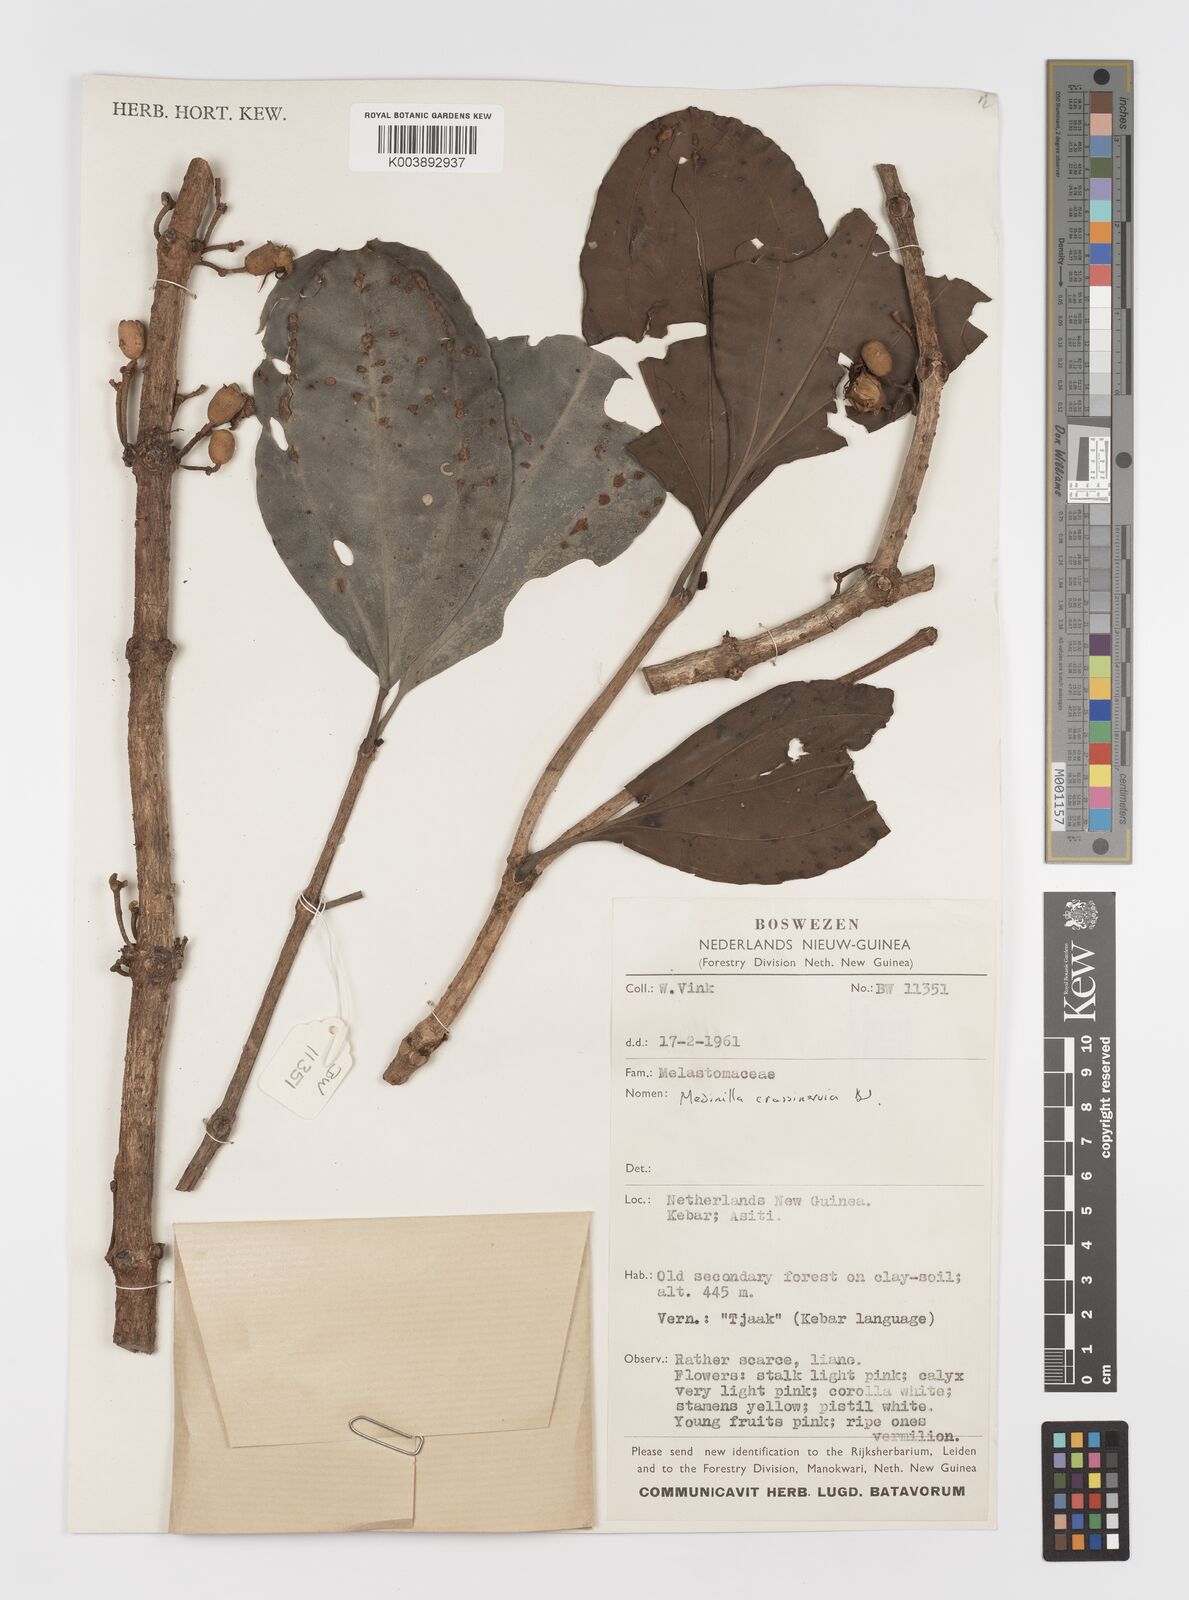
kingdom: Plantae
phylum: Tracheophyta
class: Magnoliopsida
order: Myrtales
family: Melastomataceae
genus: Medinilla
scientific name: Medinilla crassinervia
